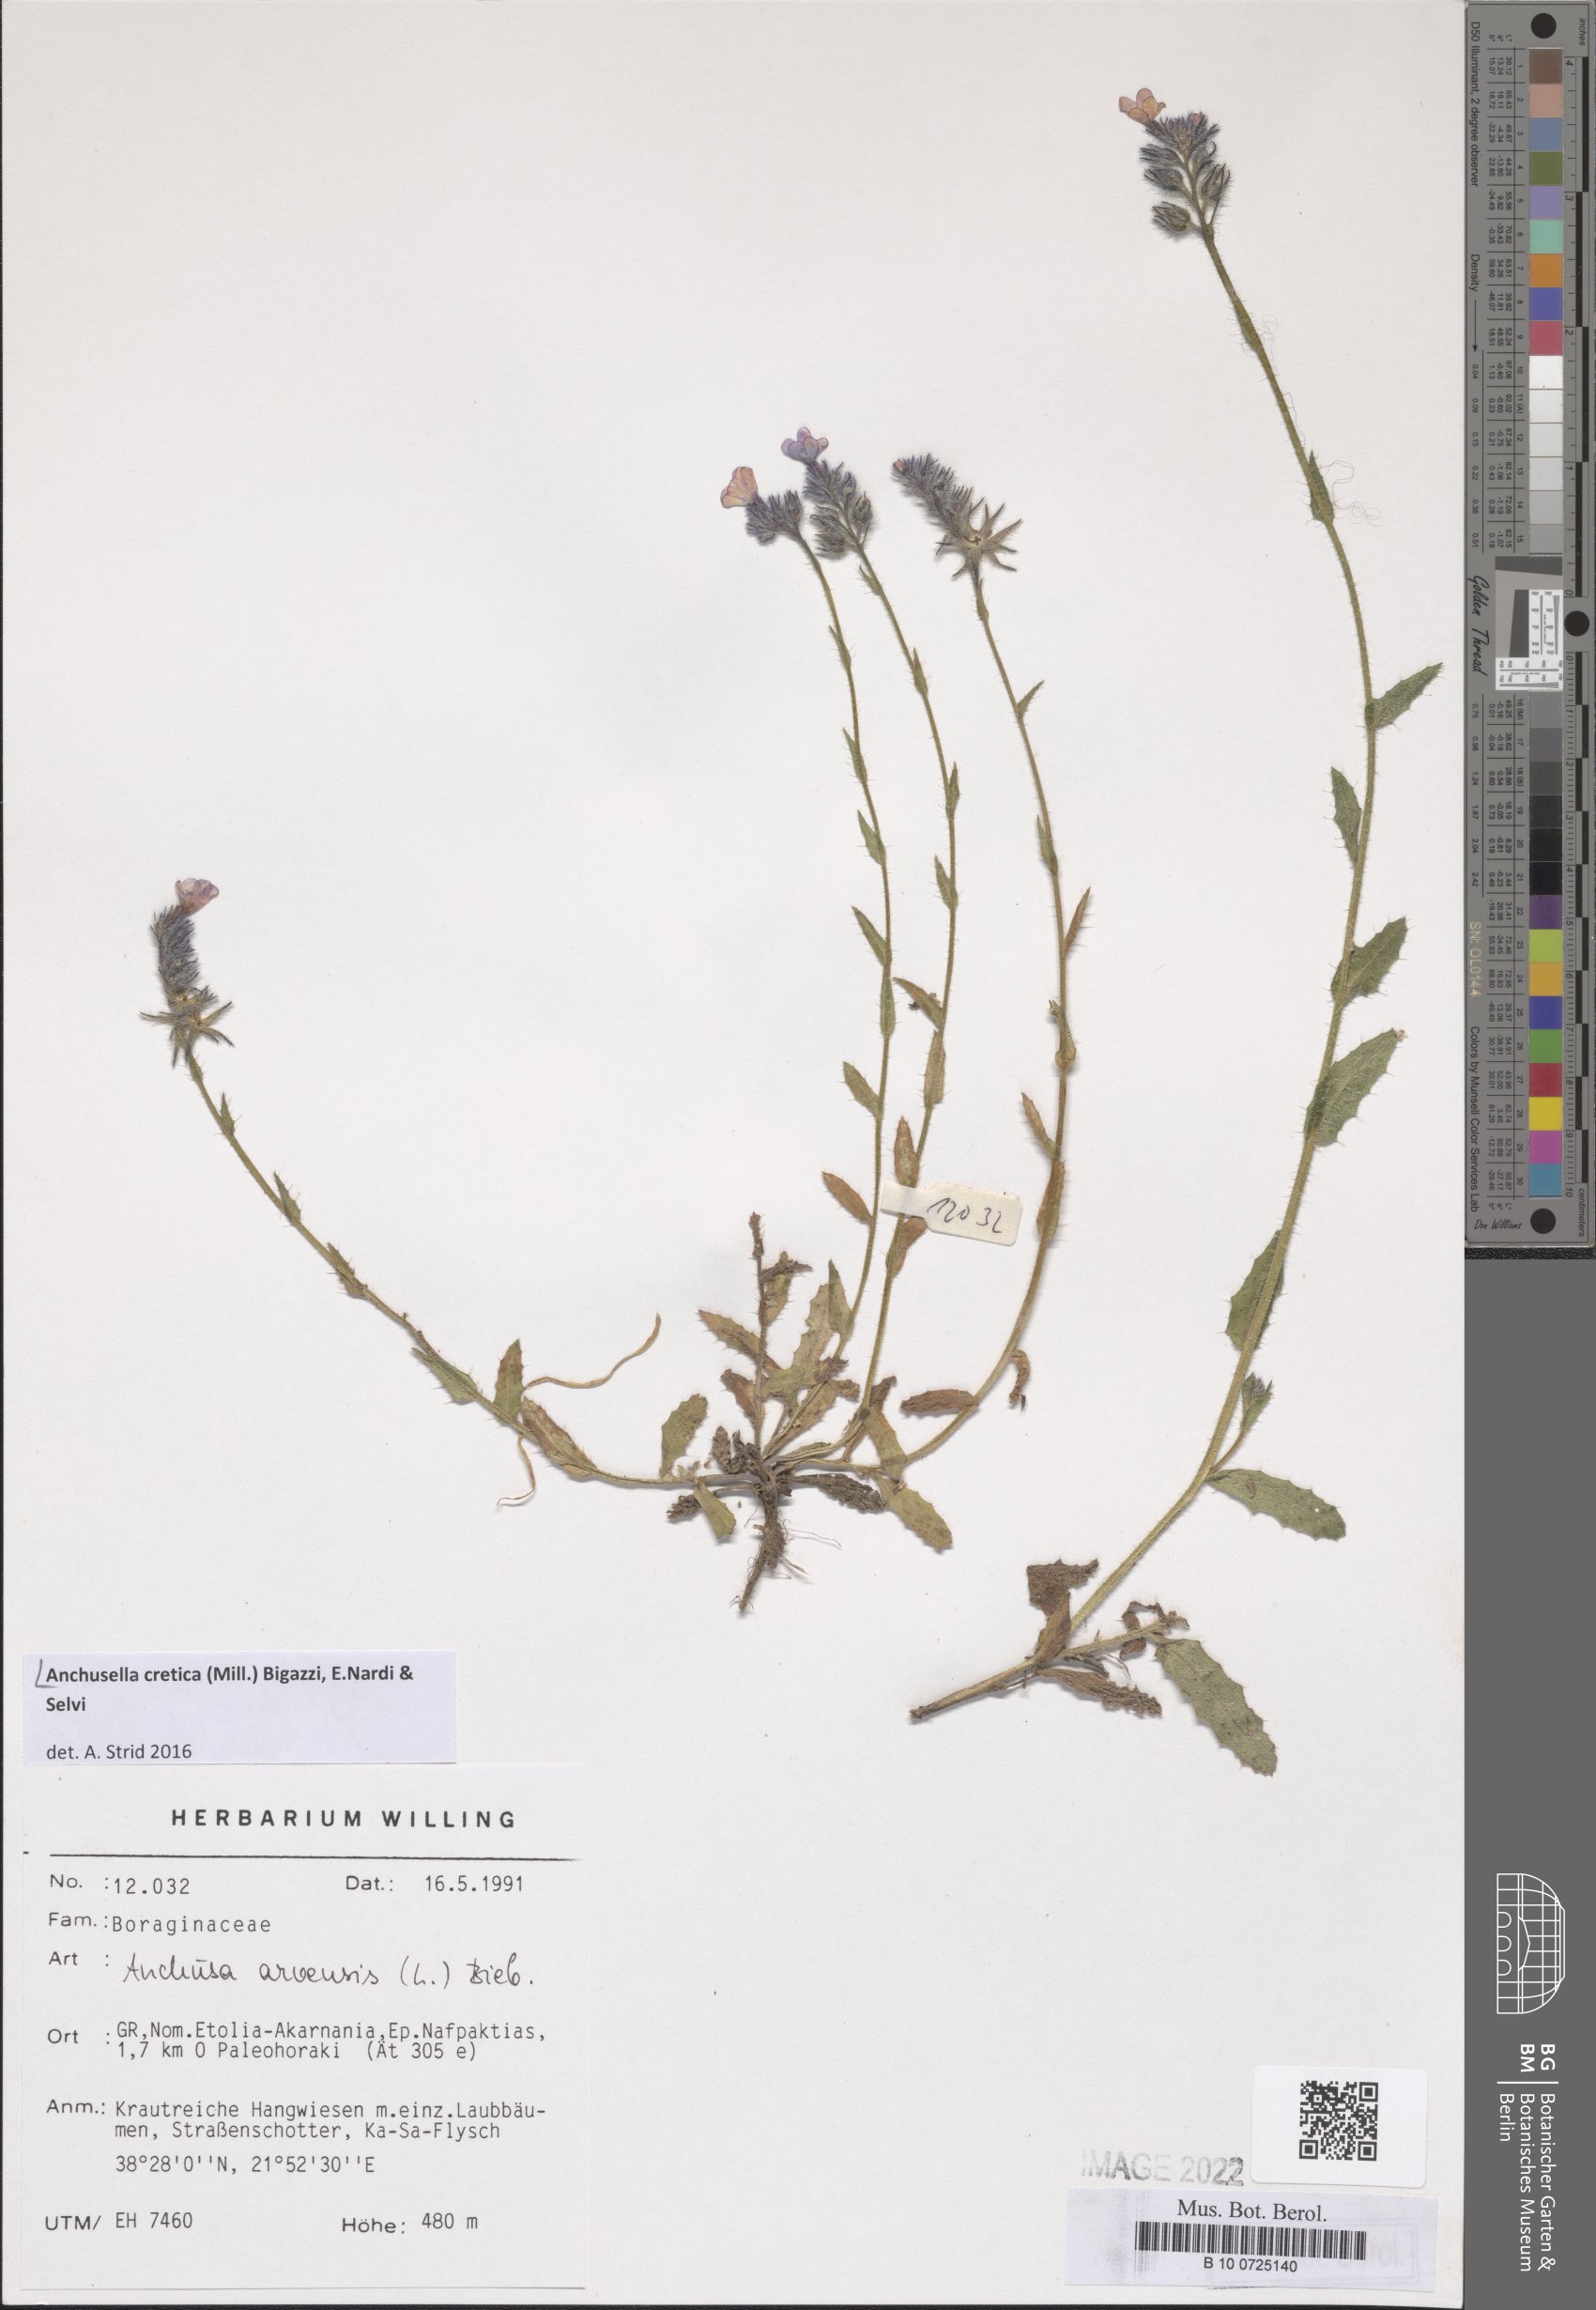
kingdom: Plantae
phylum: Tracheophyta
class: Magnoliopsida
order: Boraginales
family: Boraginaceae
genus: Anchusella
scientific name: Anchusella cretica
